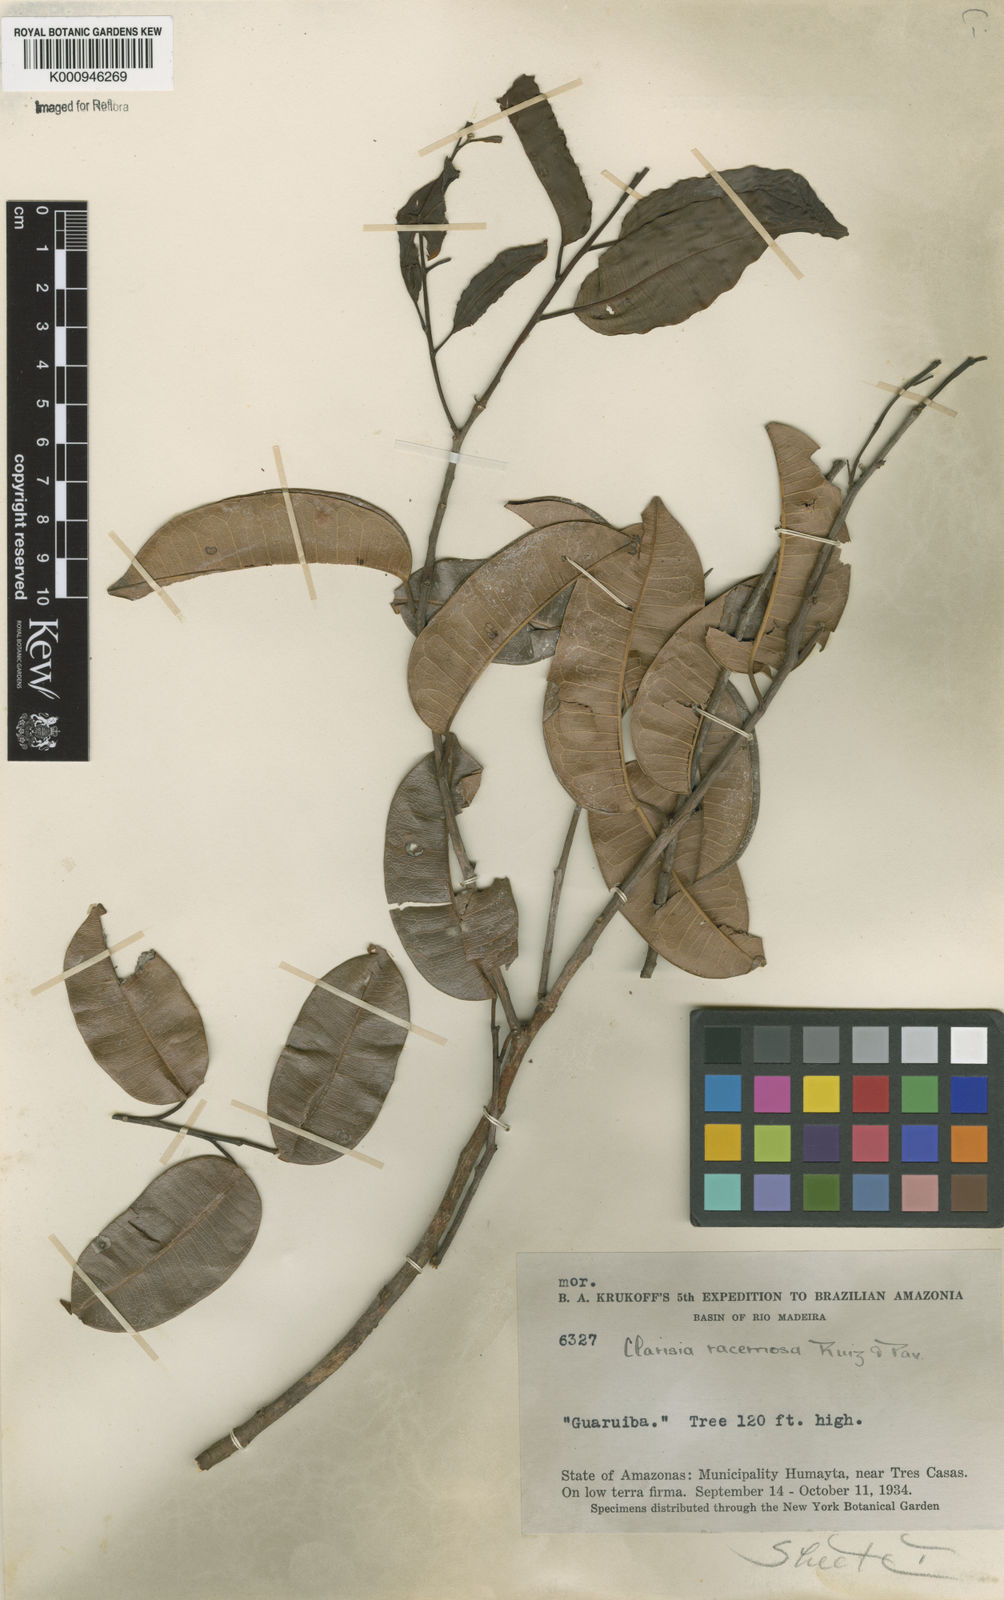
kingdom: Plantae
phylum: Tracheophyta
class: Magnoliopsida
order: Rosales
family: Moraceae
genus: Clarisia
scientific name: Clarisia racemosa
